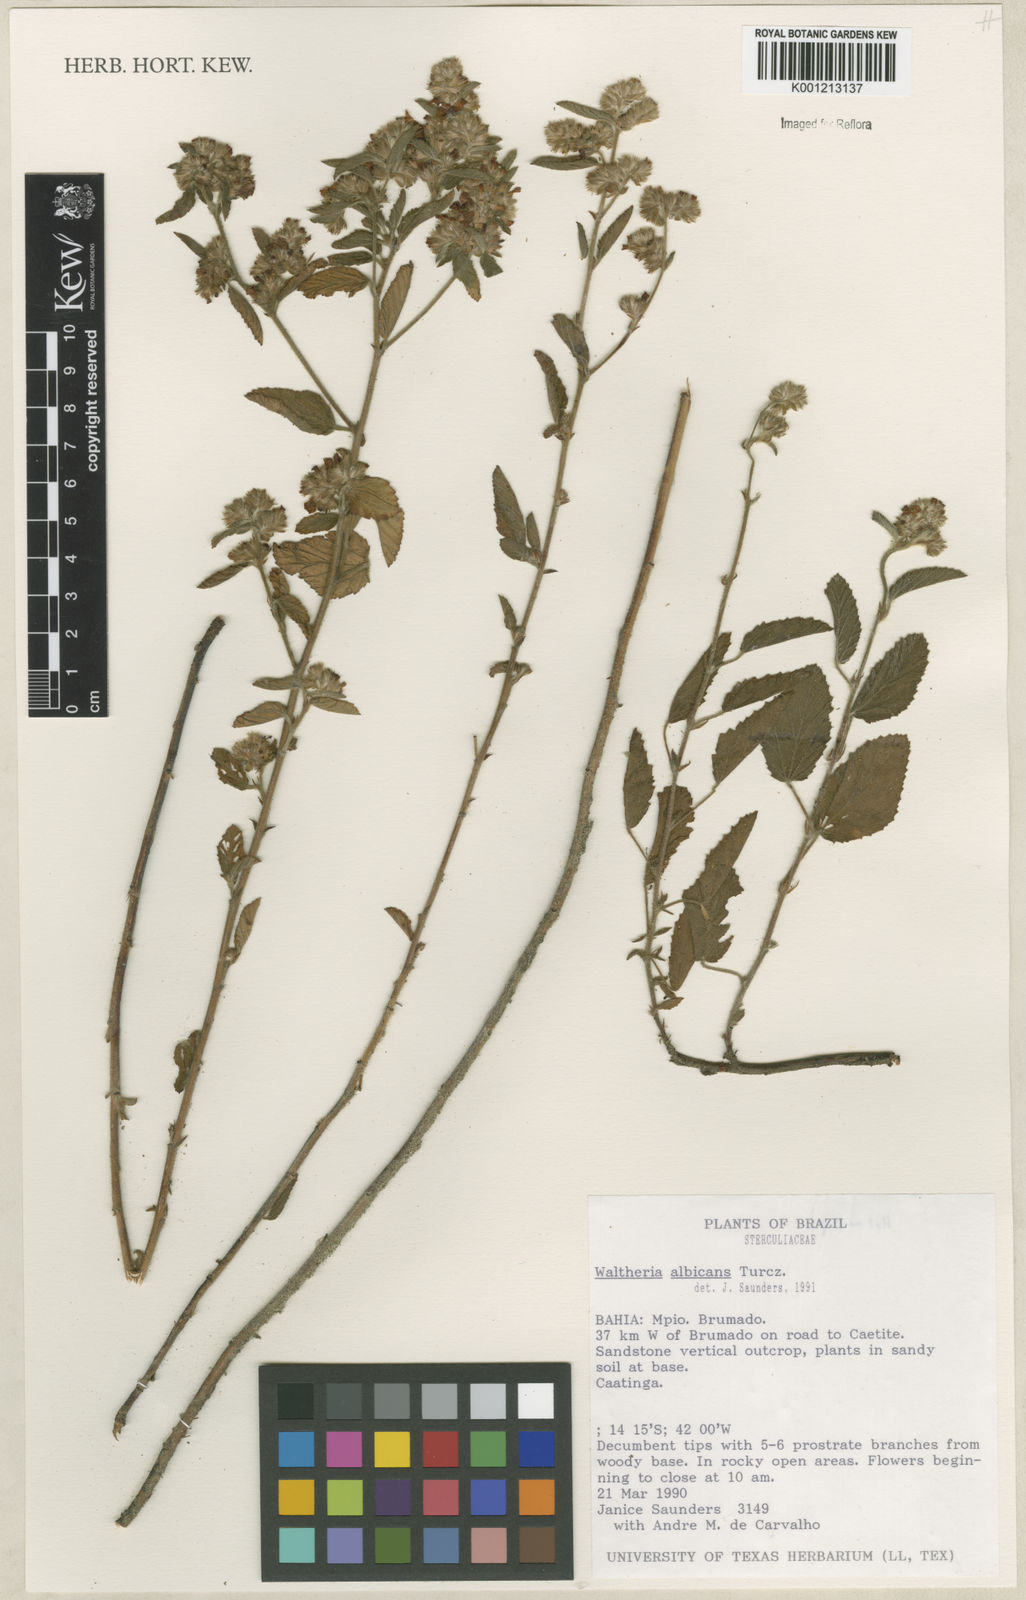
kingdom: Plantae
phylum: Tracheophyta
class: Magnoliopsida
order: Malvales
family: Malvaceae
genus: Waltheria
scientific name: Waltheria albicans
